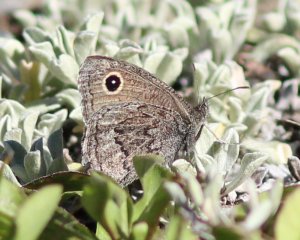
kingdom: Animalia
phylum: Arthropoda
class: Insecta
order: Lepidoptera
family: Nymphalidae
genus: Cercyonis
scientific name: Cercyonis oetus
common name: Small Wood-Nymph
